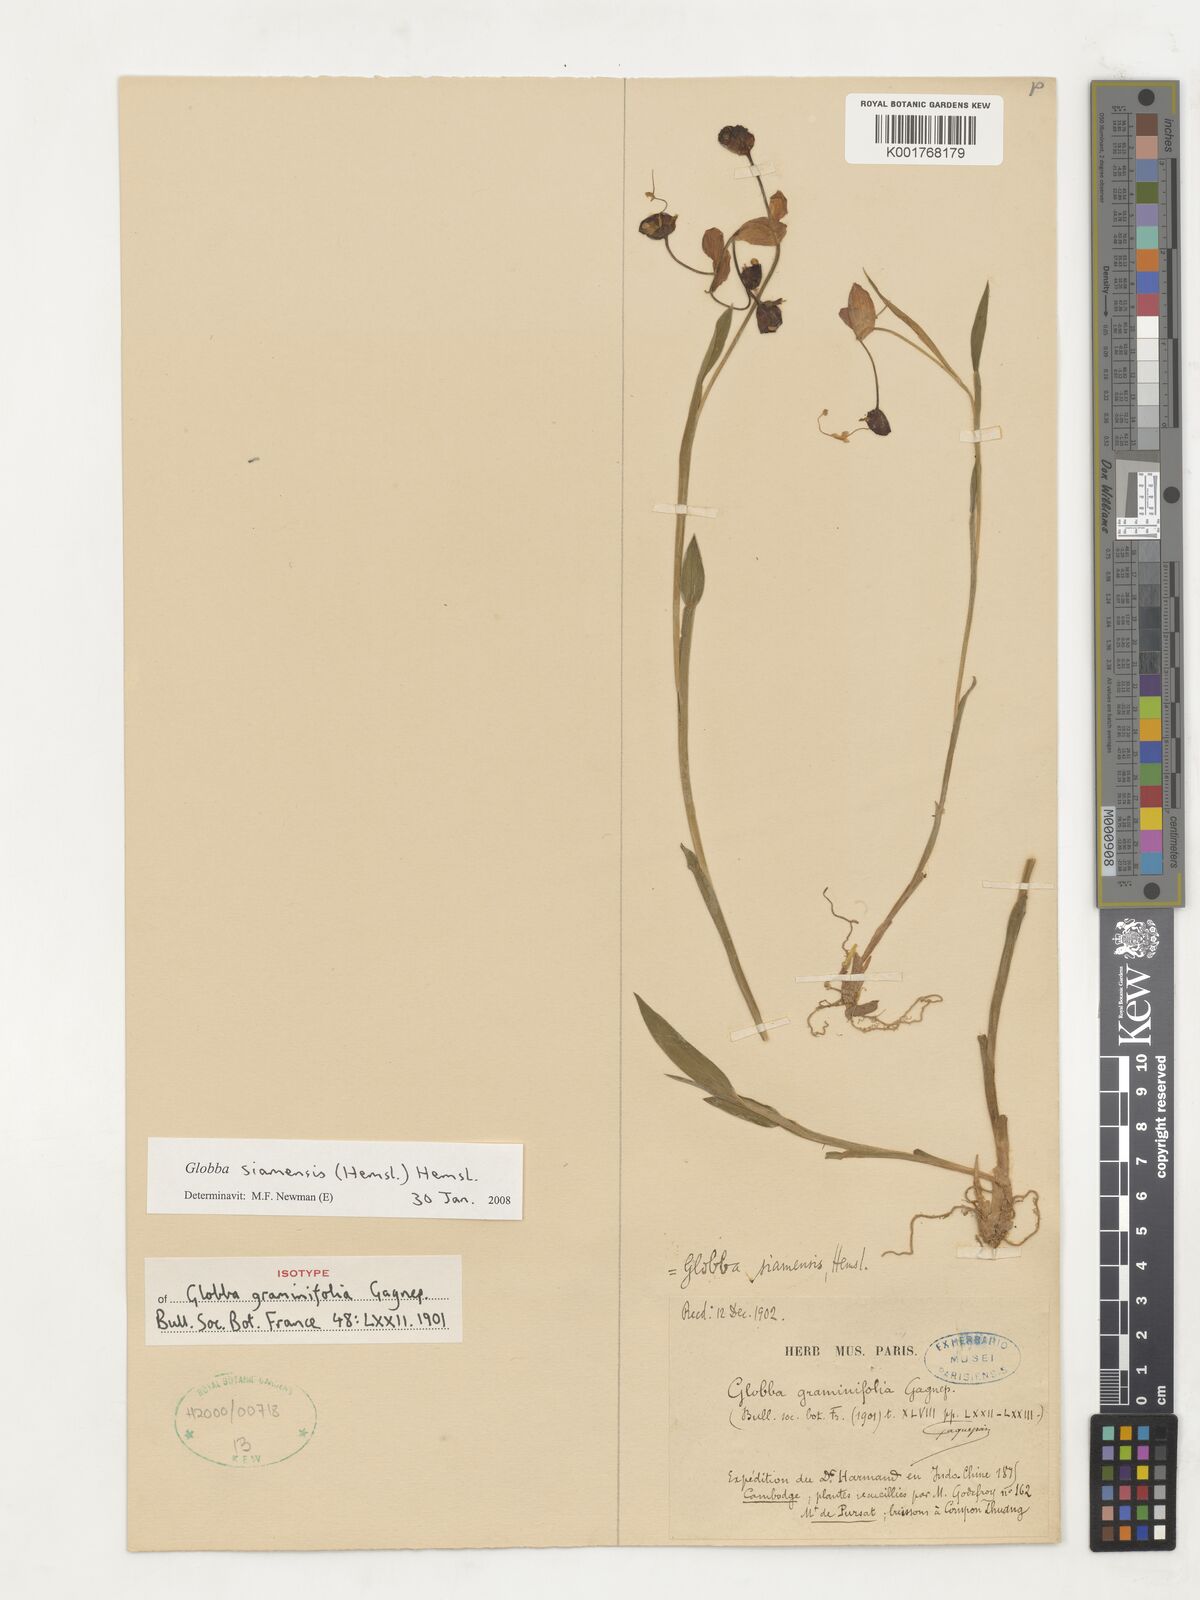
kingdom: Plantae
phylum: Tracheophyta
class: Liliopsida
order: Zingiberales
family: Zingiberaceae
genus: Globba
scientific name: Globba siamensis
